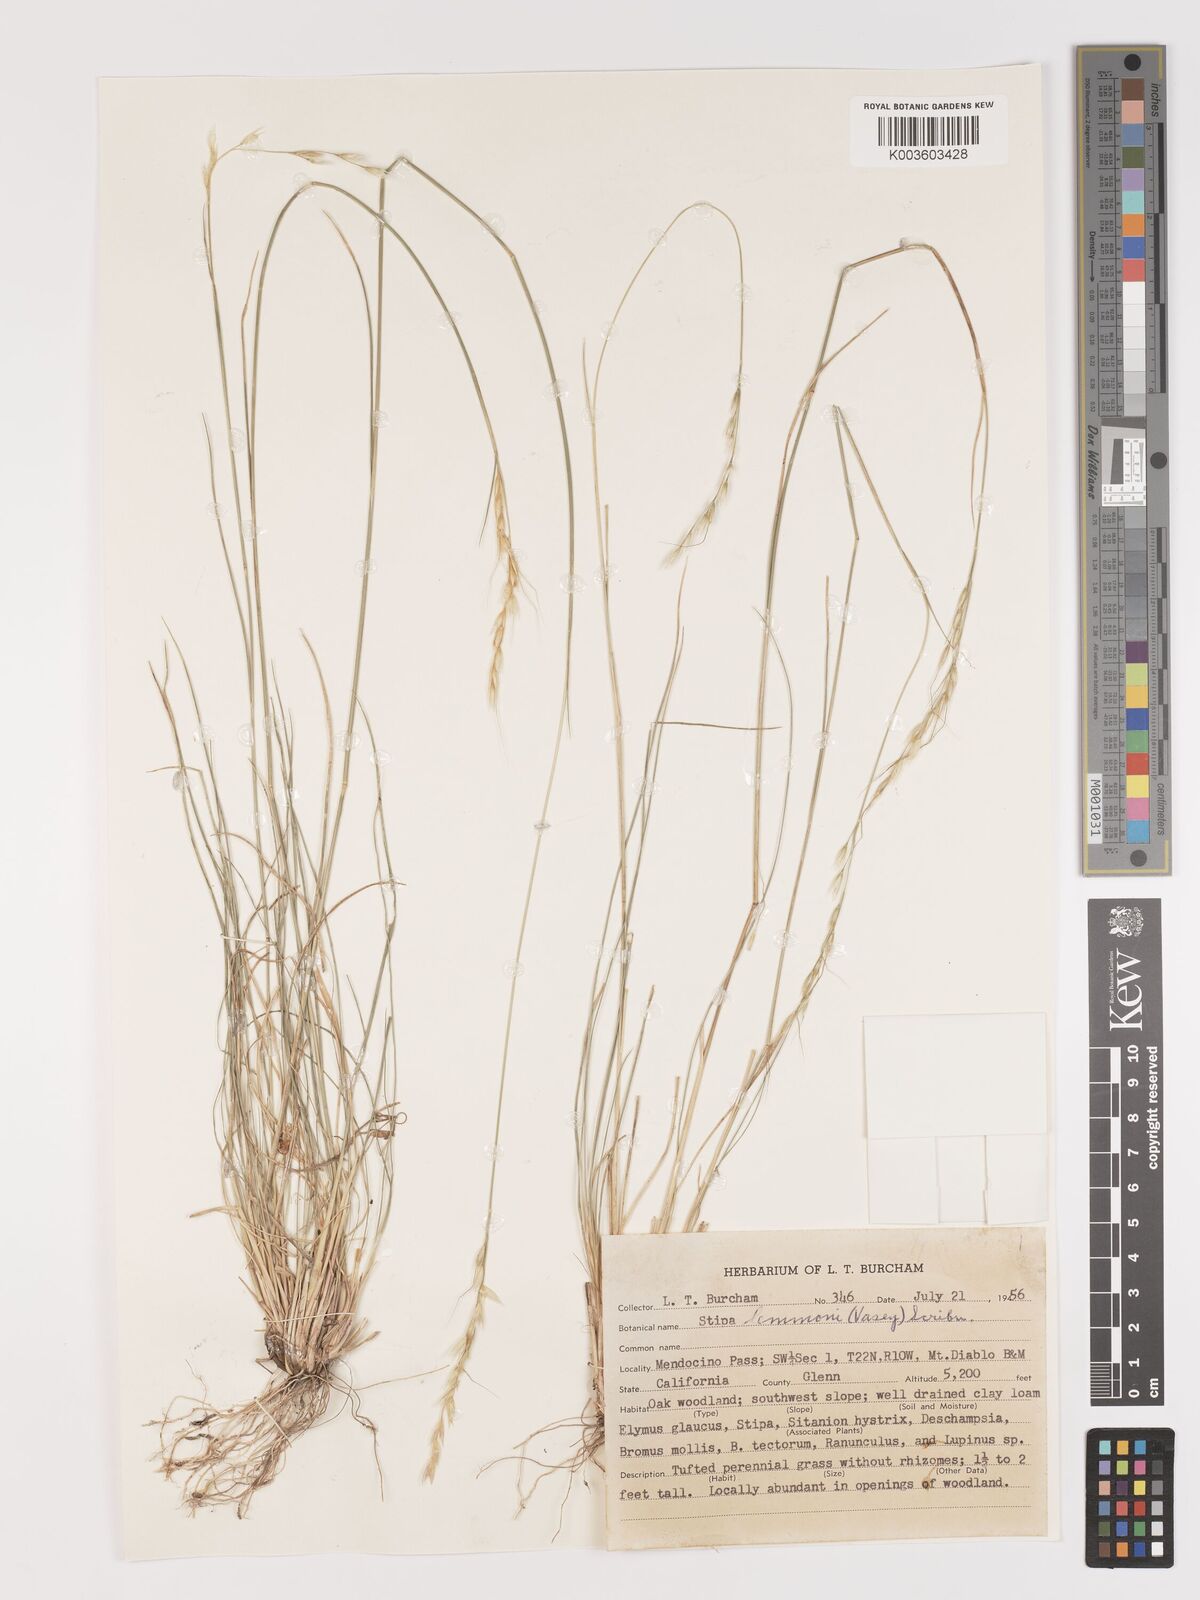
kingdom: Plantae
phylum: Tracheophyta
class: Liliopsida
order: Poales
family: Poaceae
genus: Eriocoma
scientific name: Eriocoma lemmonii
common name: Lemmon's needlegrass
